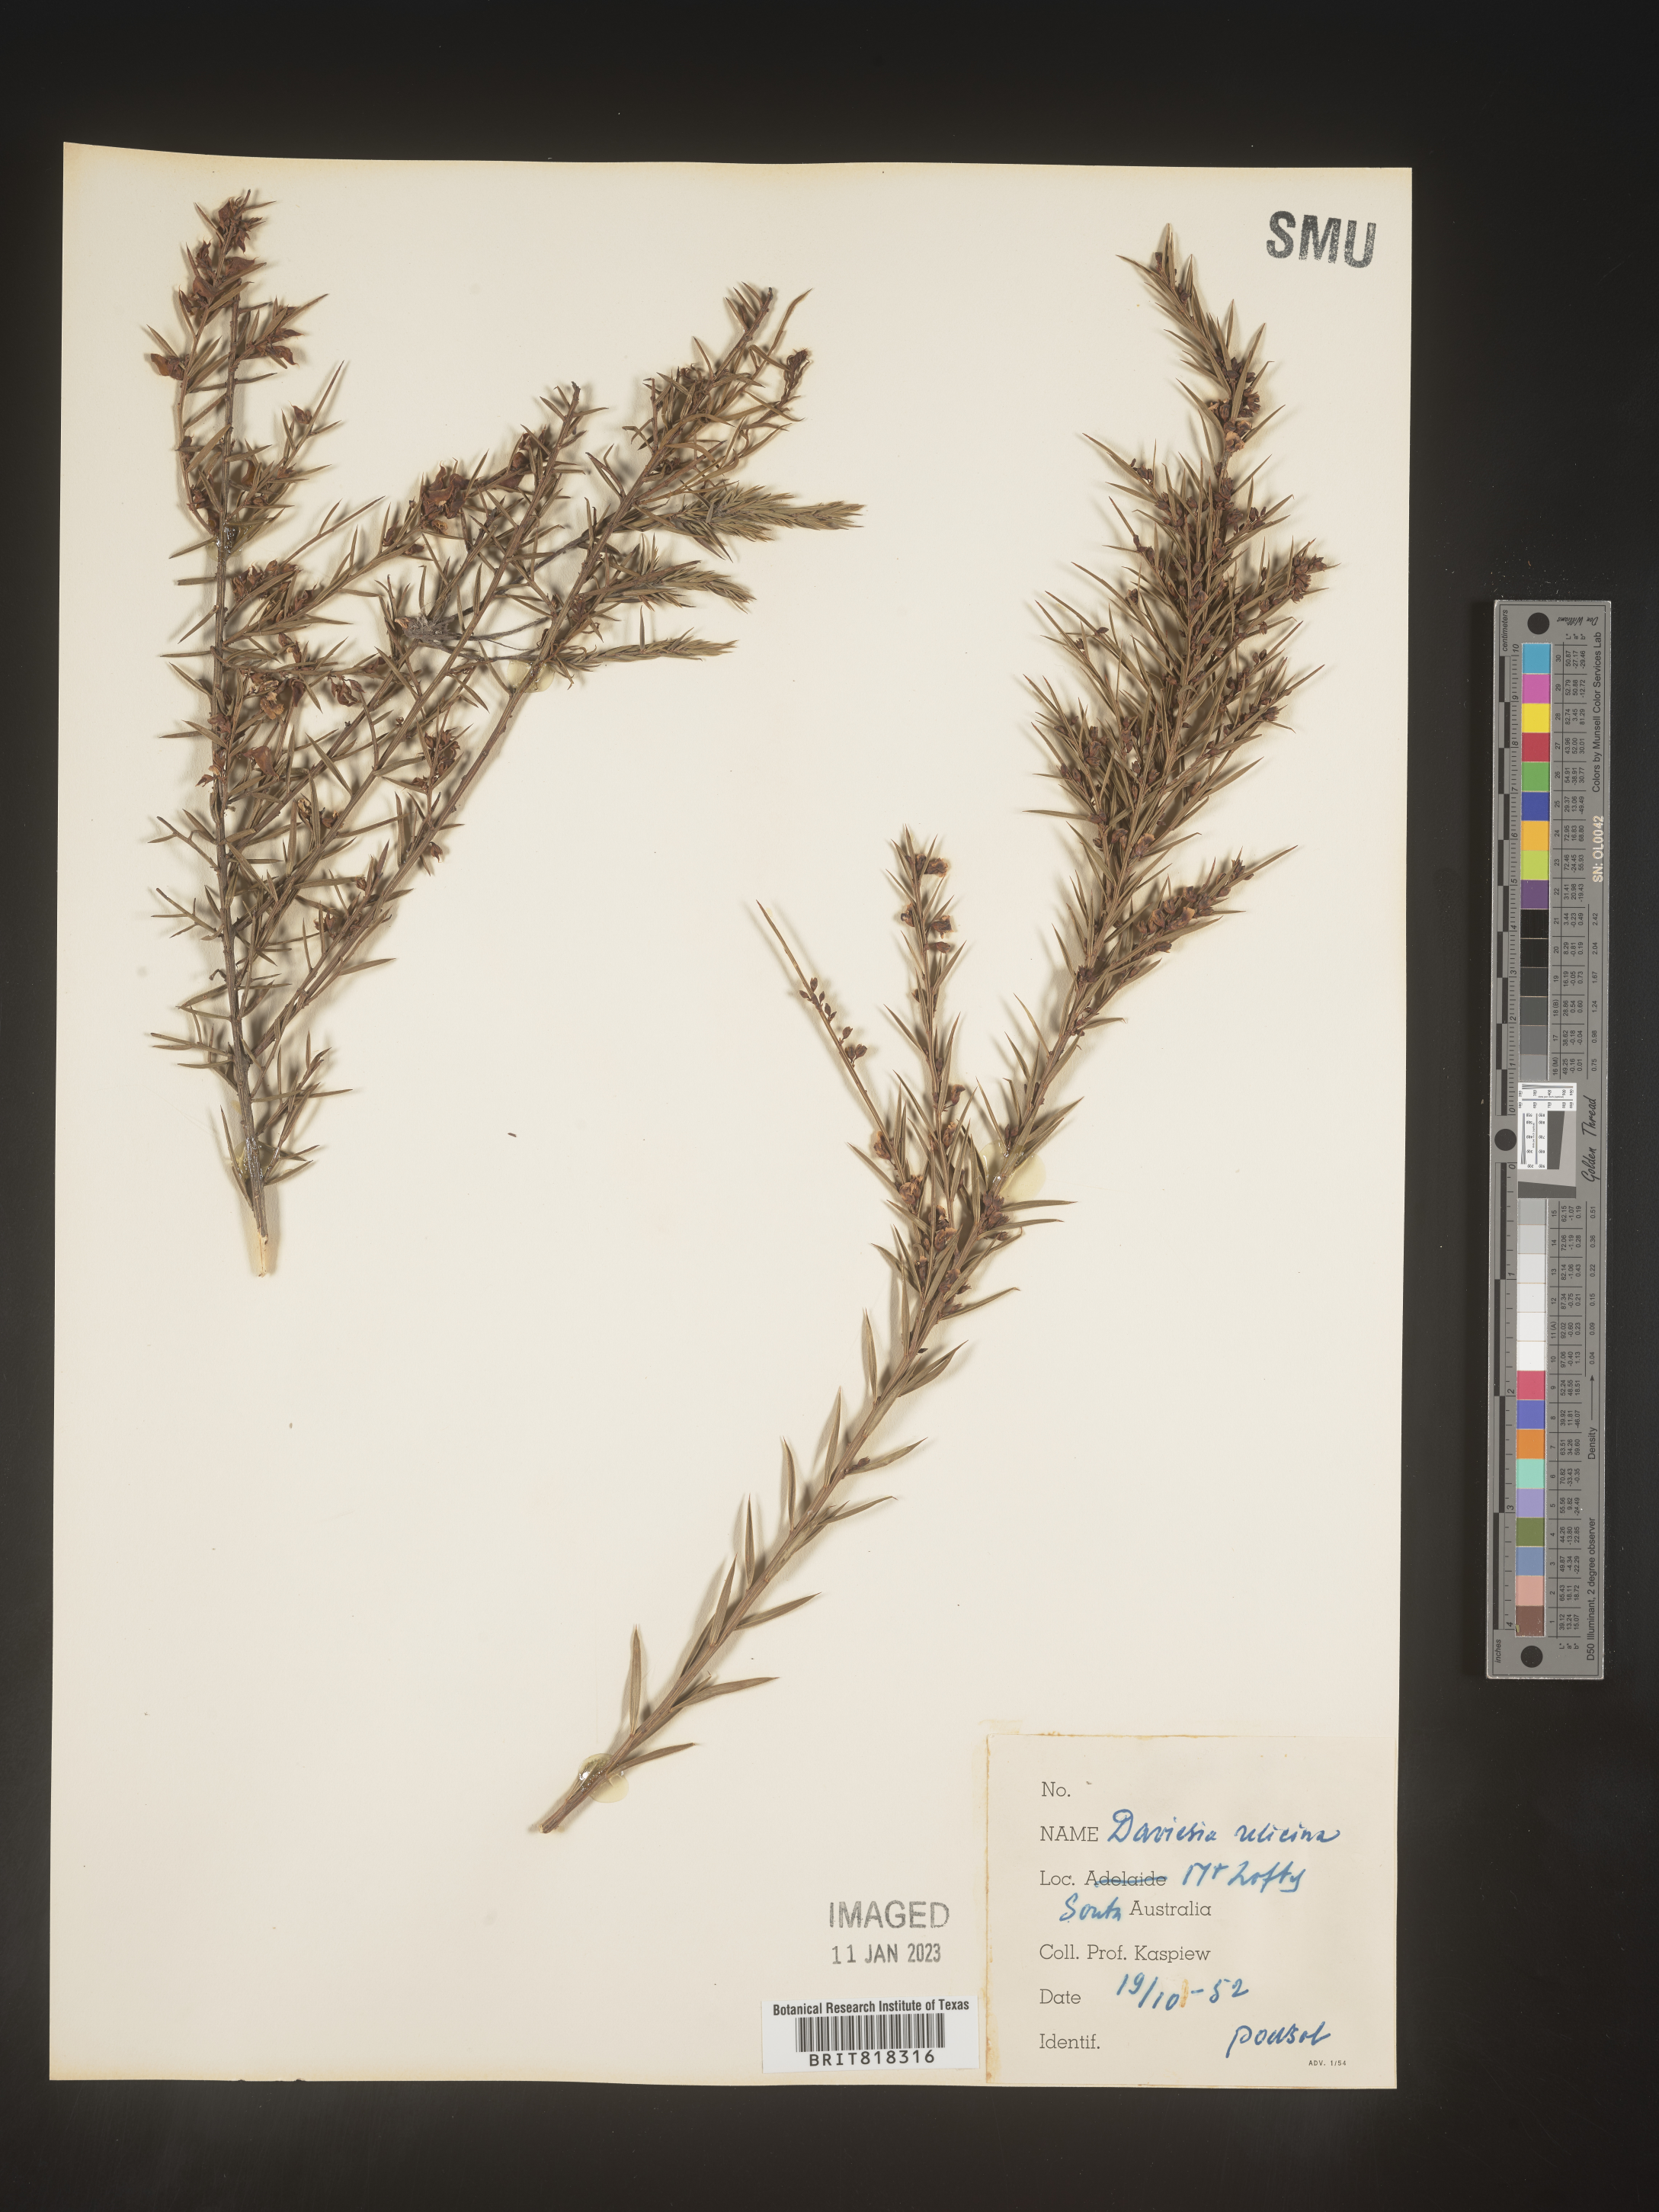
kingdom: Plantae
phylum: Tracheophyta
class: Magnoliopsida
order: Fabales
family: Fabaceae
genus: Daviesia
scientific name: Daviesia
